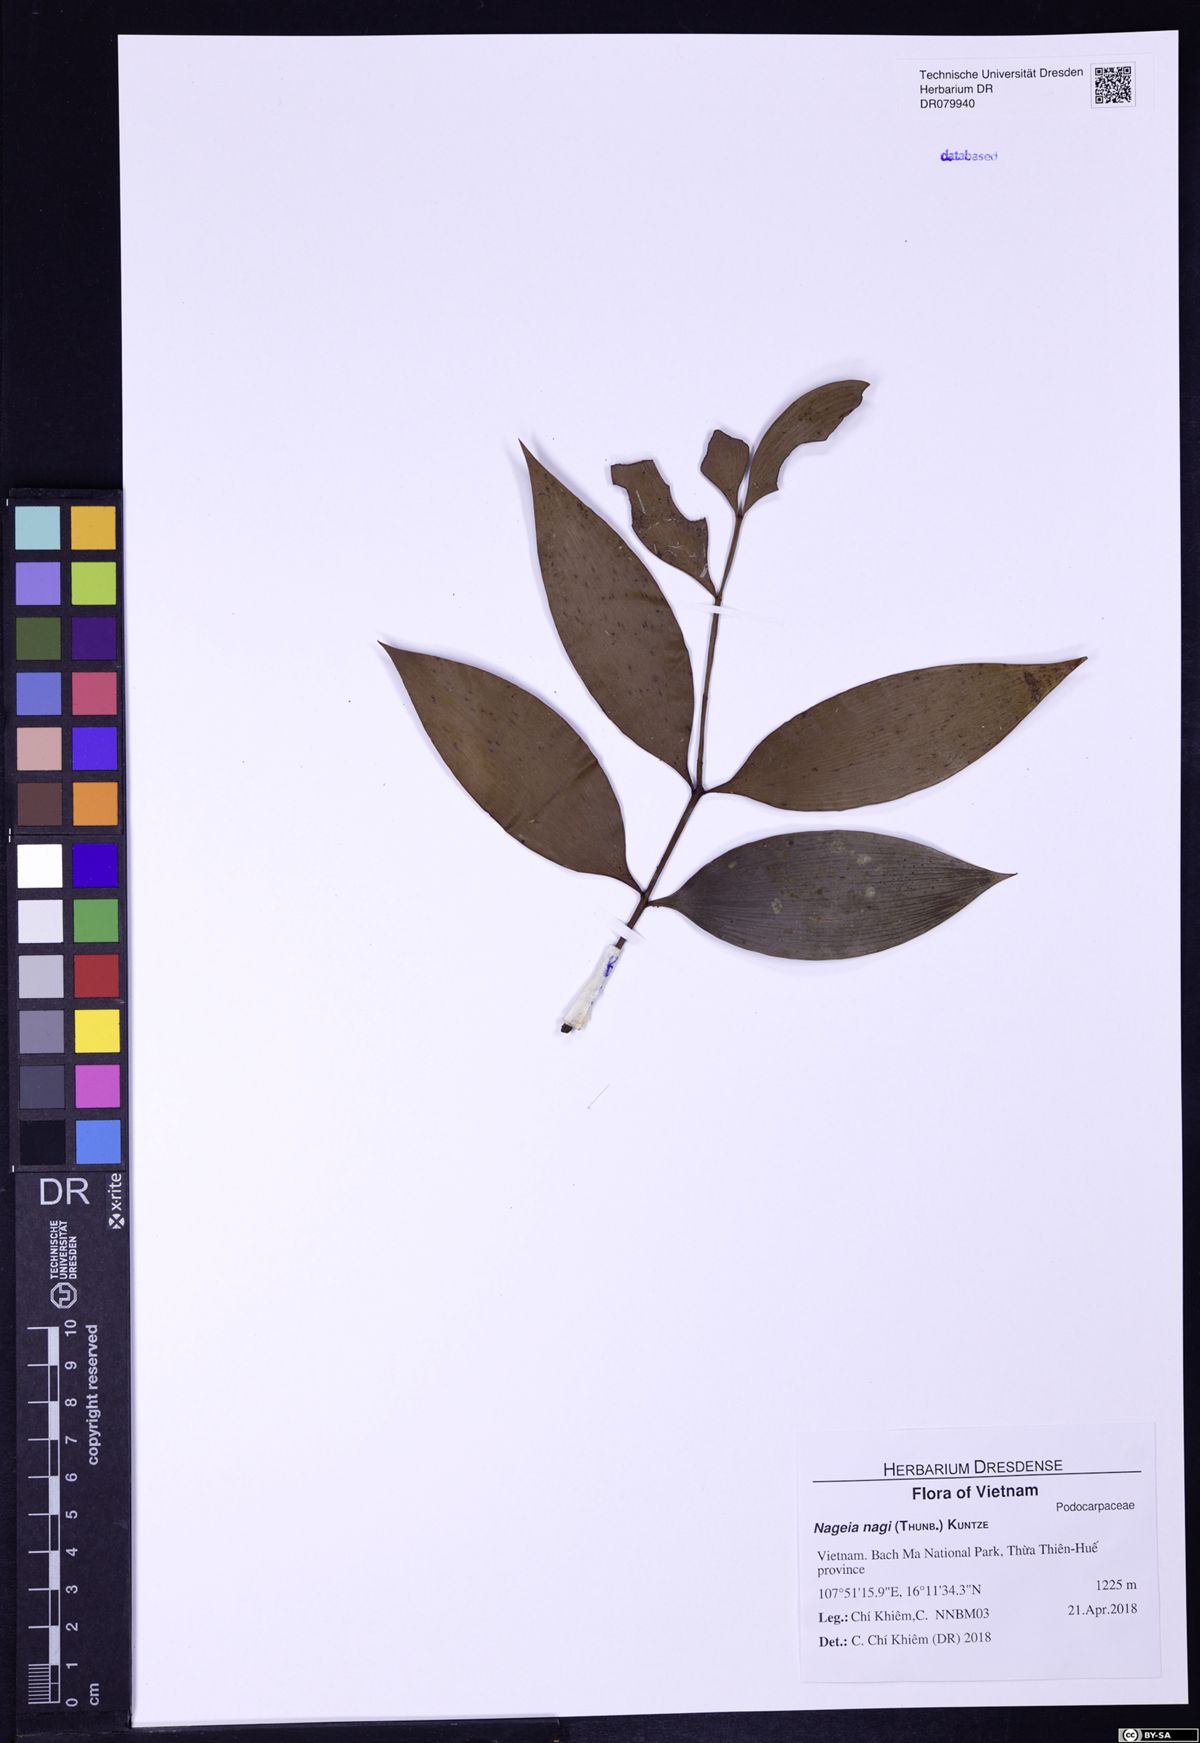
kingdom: Plantae
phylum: Tracheophyta
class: Pinopsida
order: Pinales
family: Podocarpaceae
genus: Nageia
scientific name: Nageia nagi
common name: Kaphal
